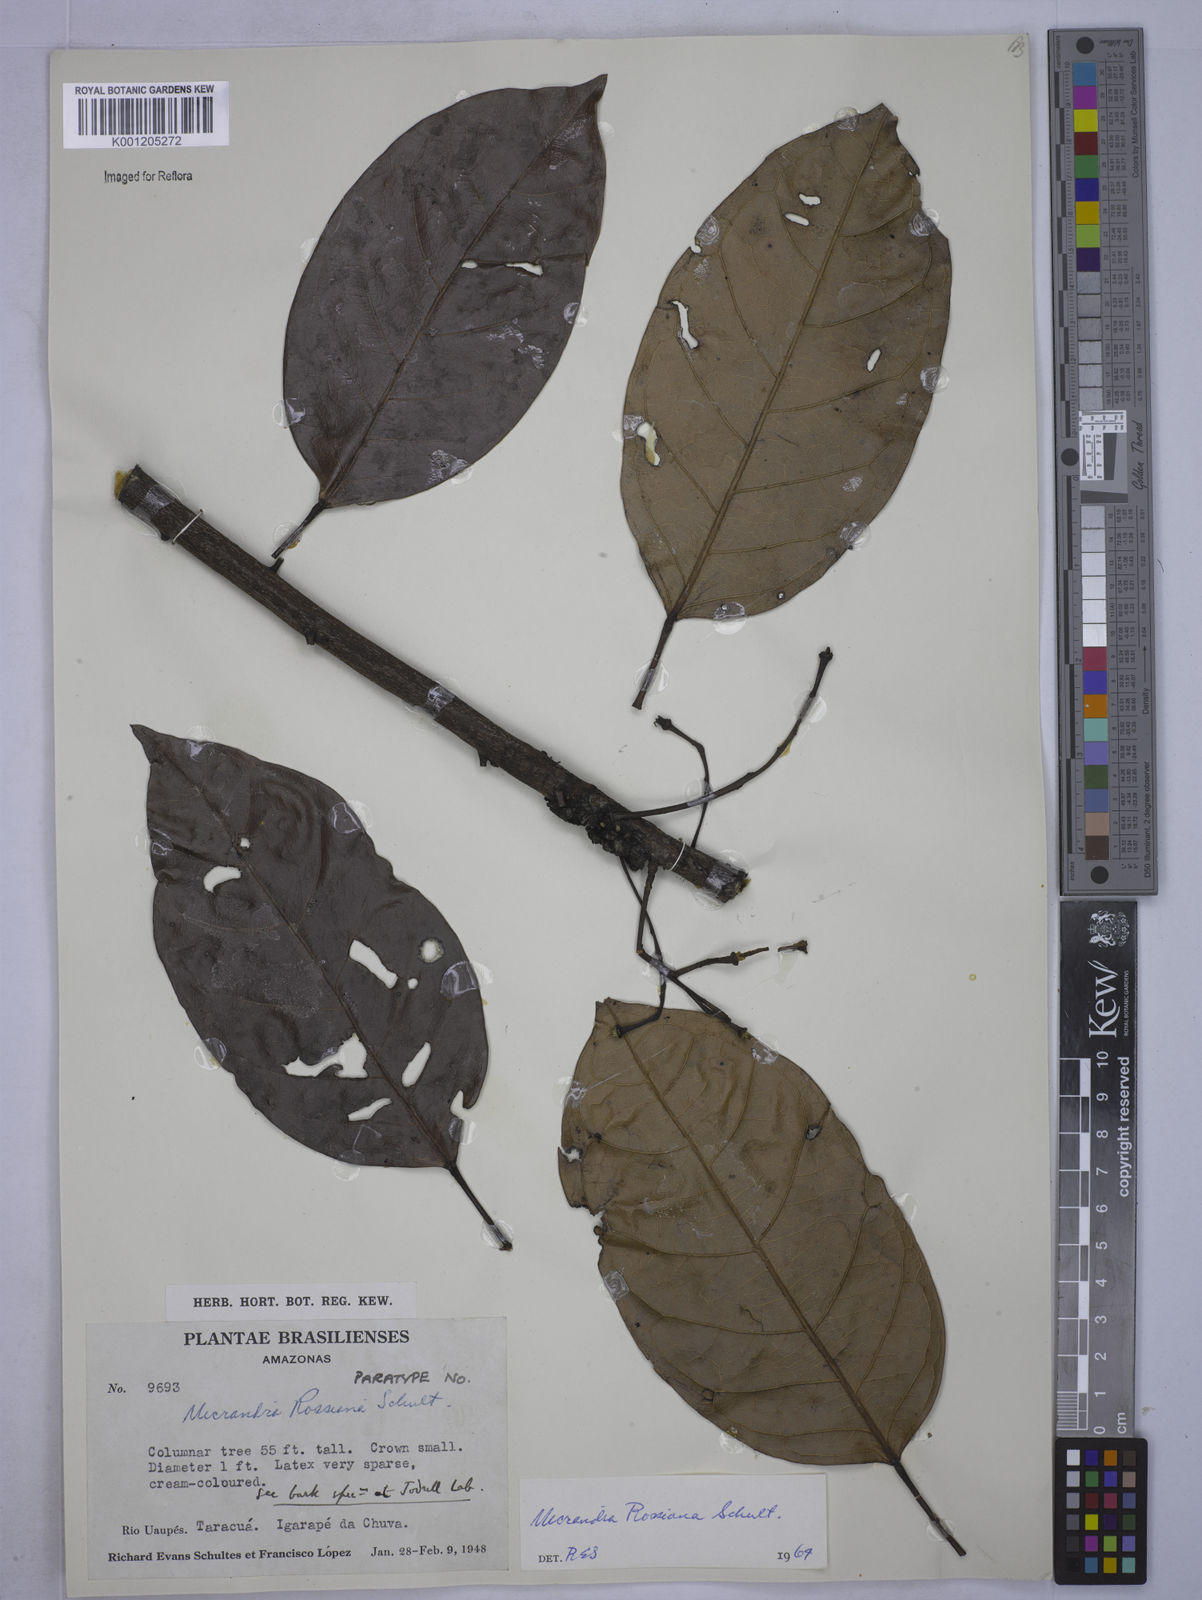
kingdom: Plantae
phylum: Tracheophyta
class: Magnoliopsida
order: Malpighiales
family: Euphorbiaceae
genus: Micrandra
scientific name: Micrandra rossiana
